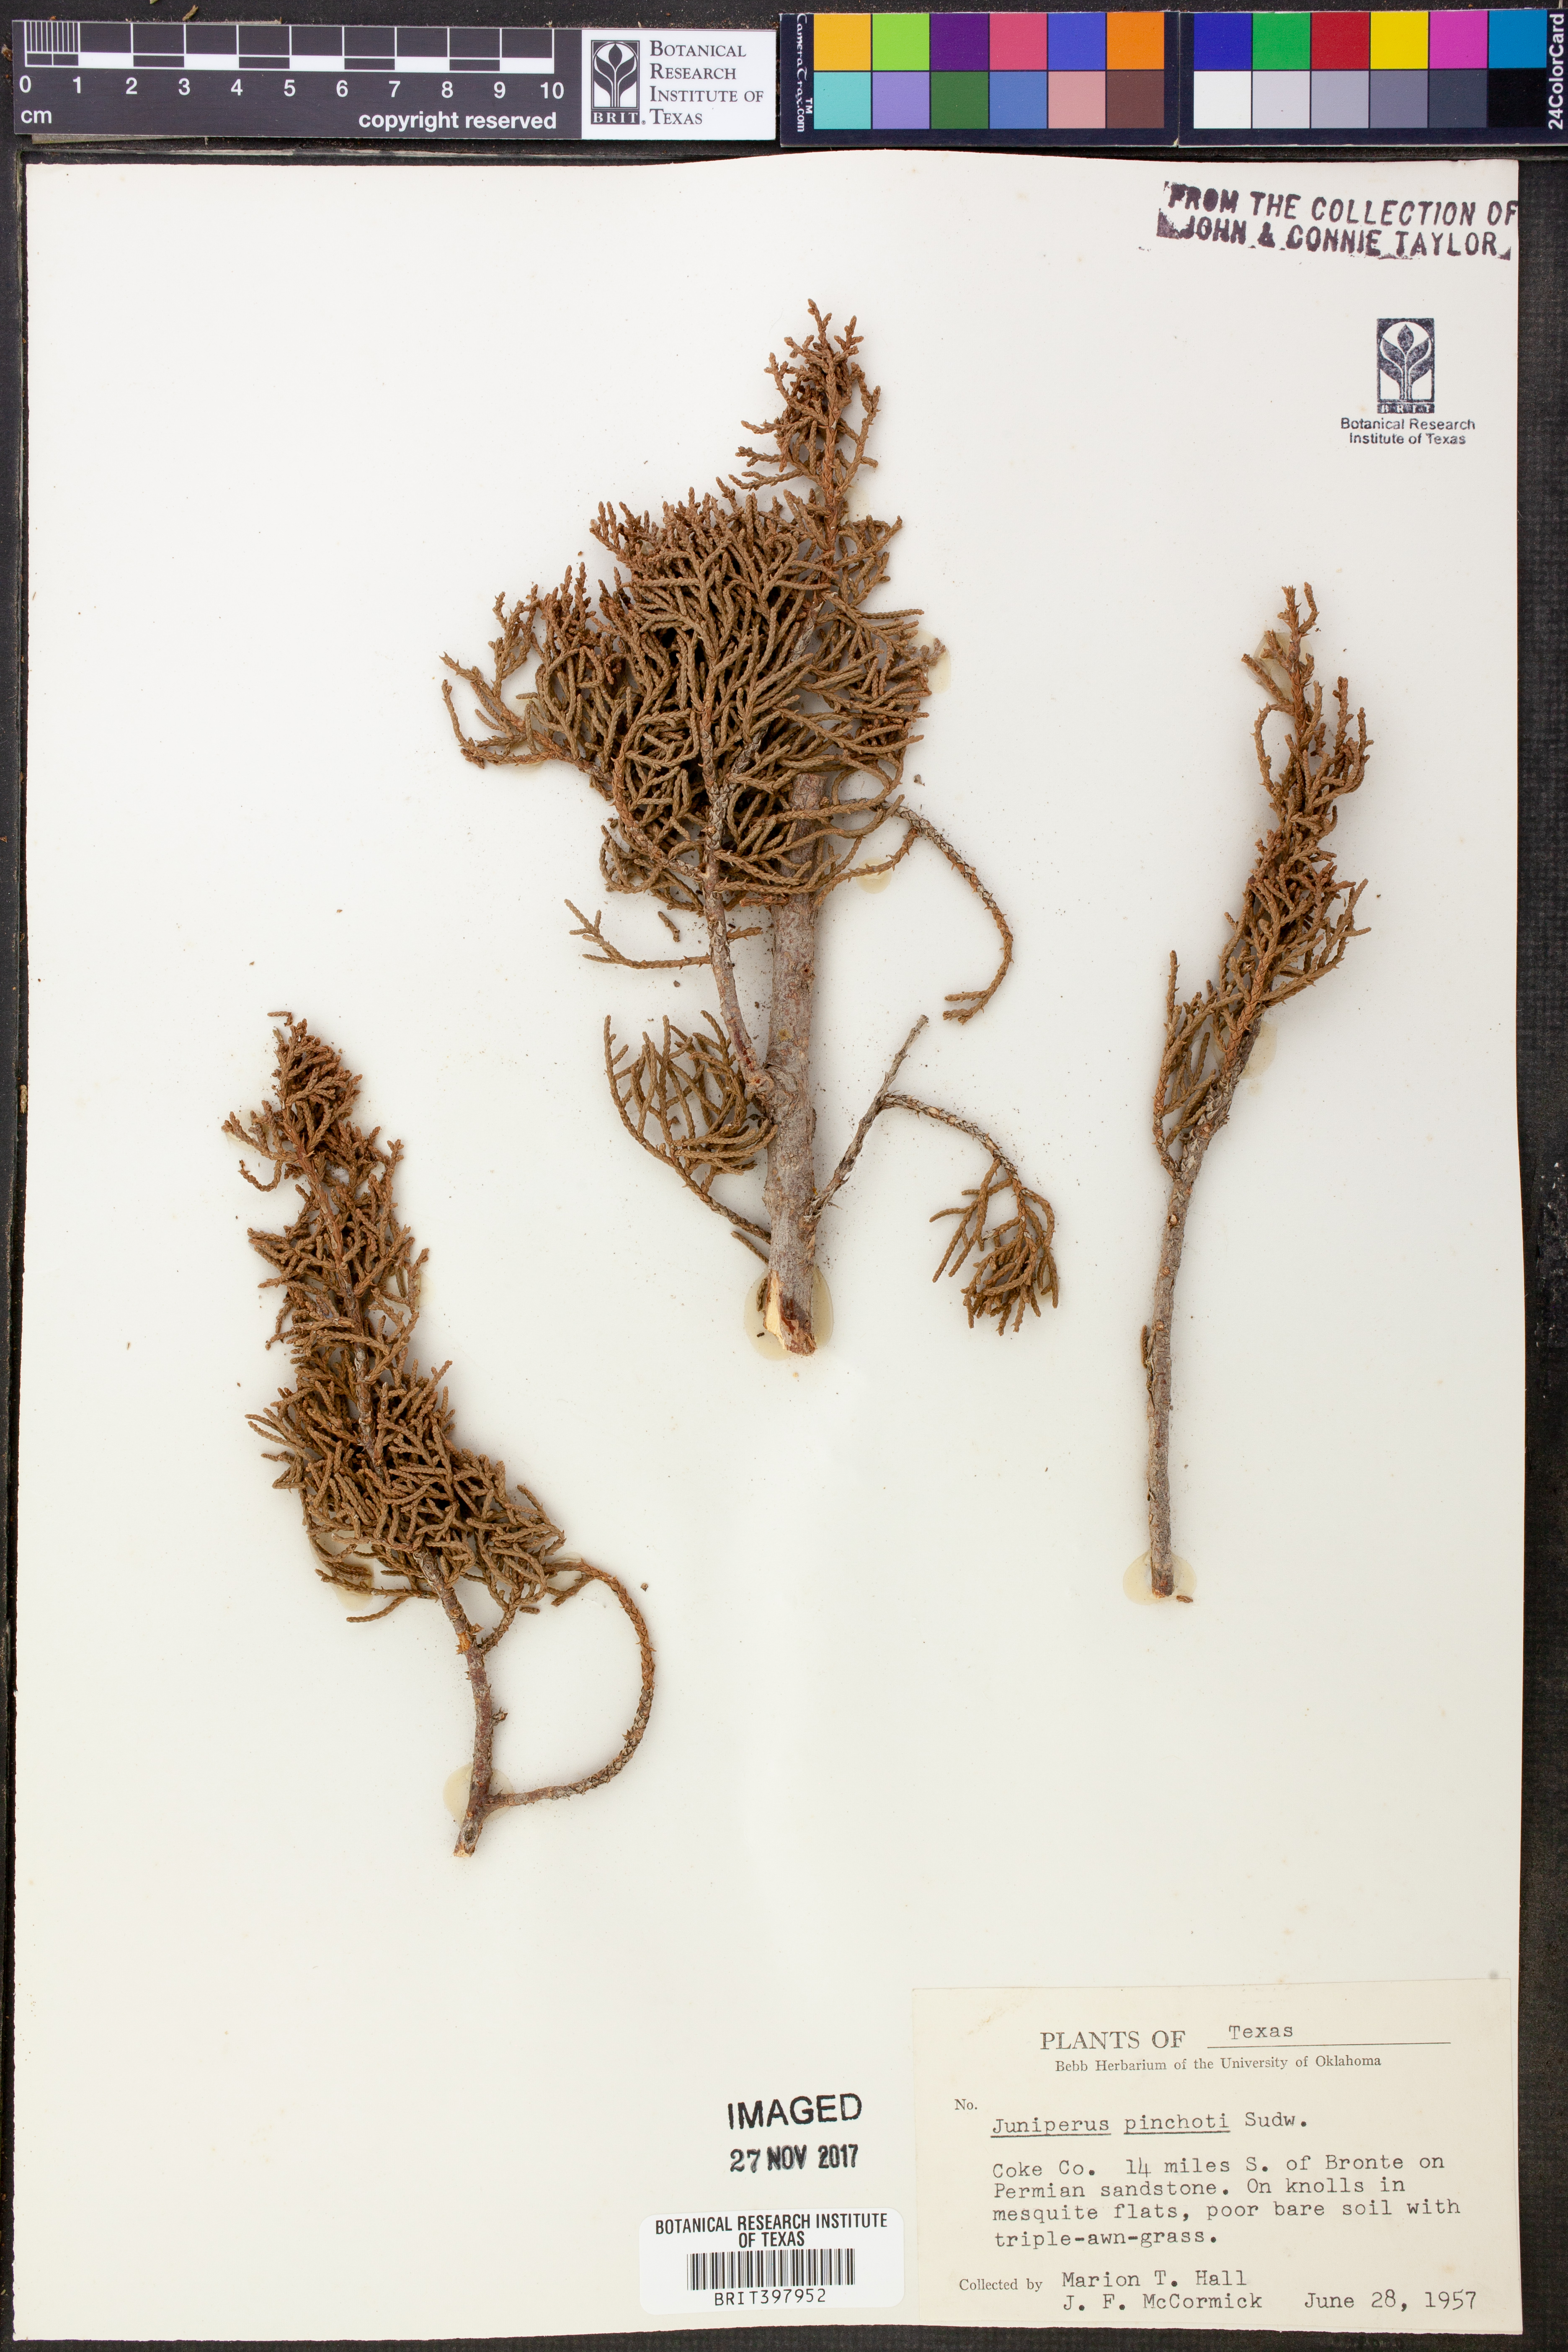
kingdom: Plantae
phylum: Tracheophyta
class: Pinopsida
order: Pinales
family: Cupressaceae
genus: Juniperus
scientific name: Juniperus pinchotii
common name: Pinchot juniper
